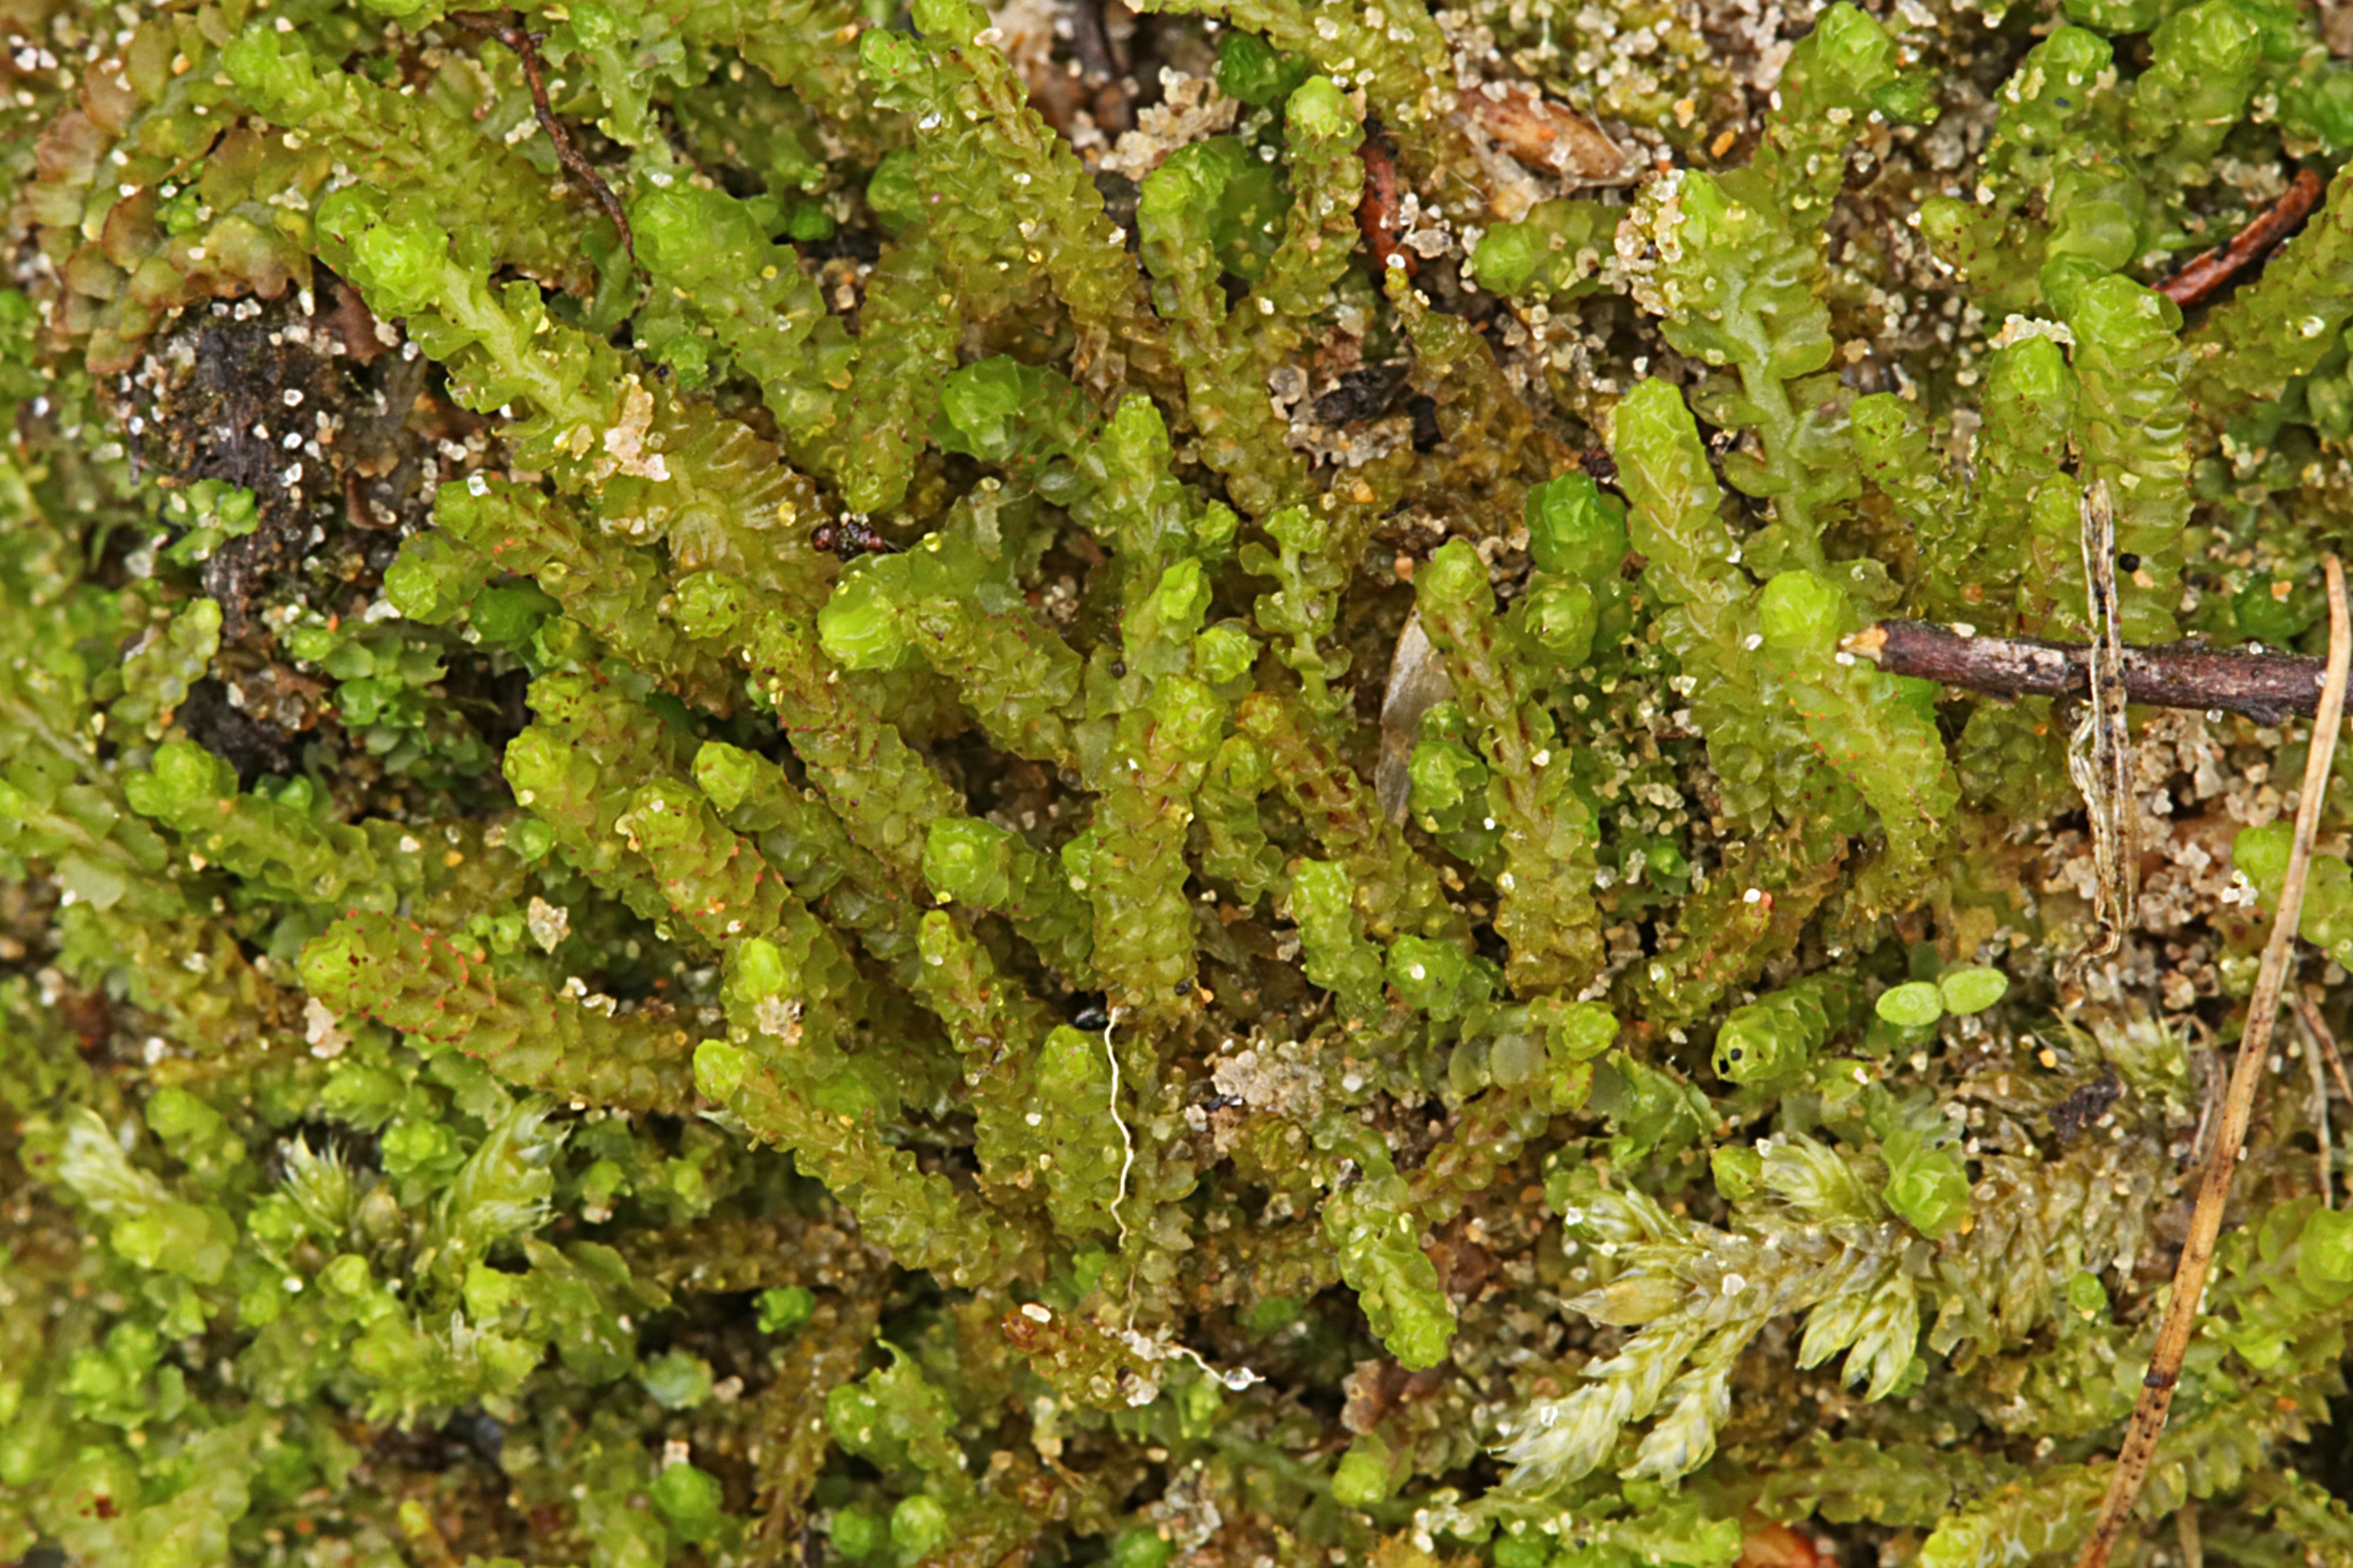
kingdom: Plantae
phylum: Marchantiophyta
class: Jungermanniopsida
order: Jungermanniales
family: Anastrophyllaceae
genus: Barbilophozia
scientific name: Barbilophozia hatcheri
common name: Spidsfliget flerfligmos
